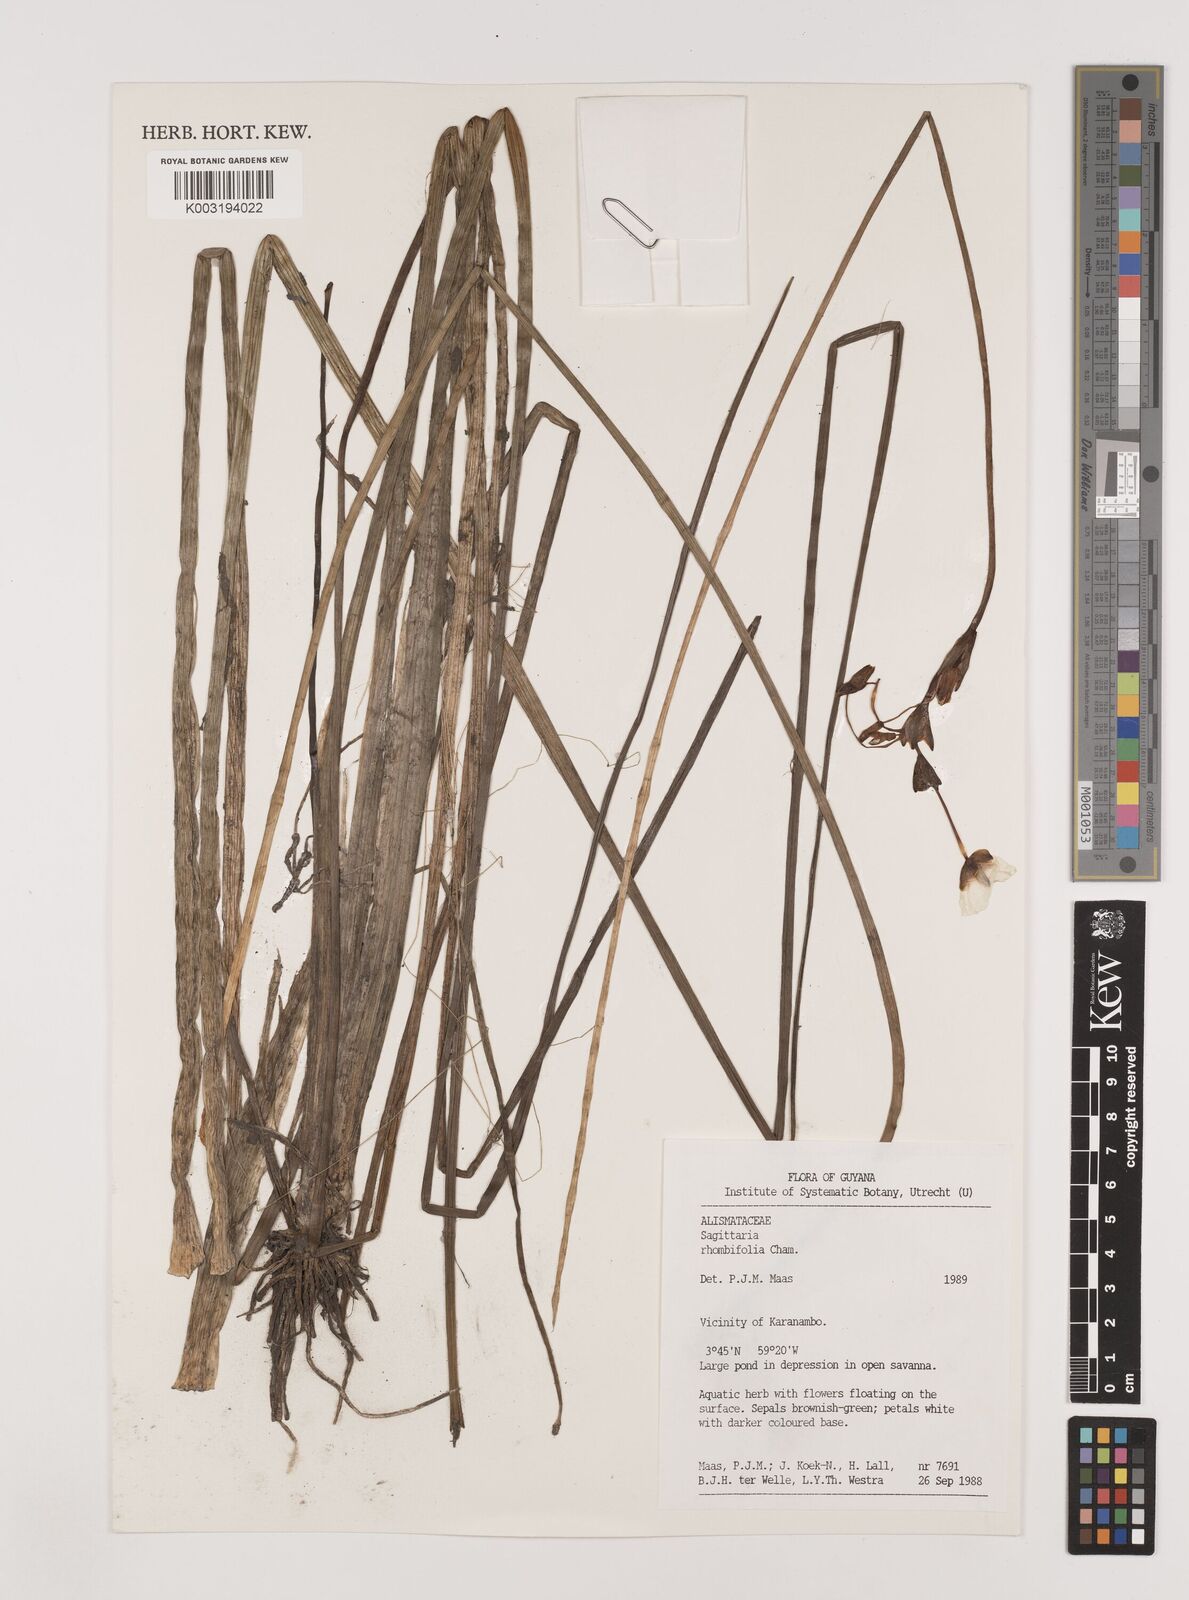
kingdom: Plantae
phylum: Tracheophyta
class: Liliopsida
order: Alismatales
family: Alismataceae
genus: Sagittaria
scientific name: Sagittaria rhombifolia
